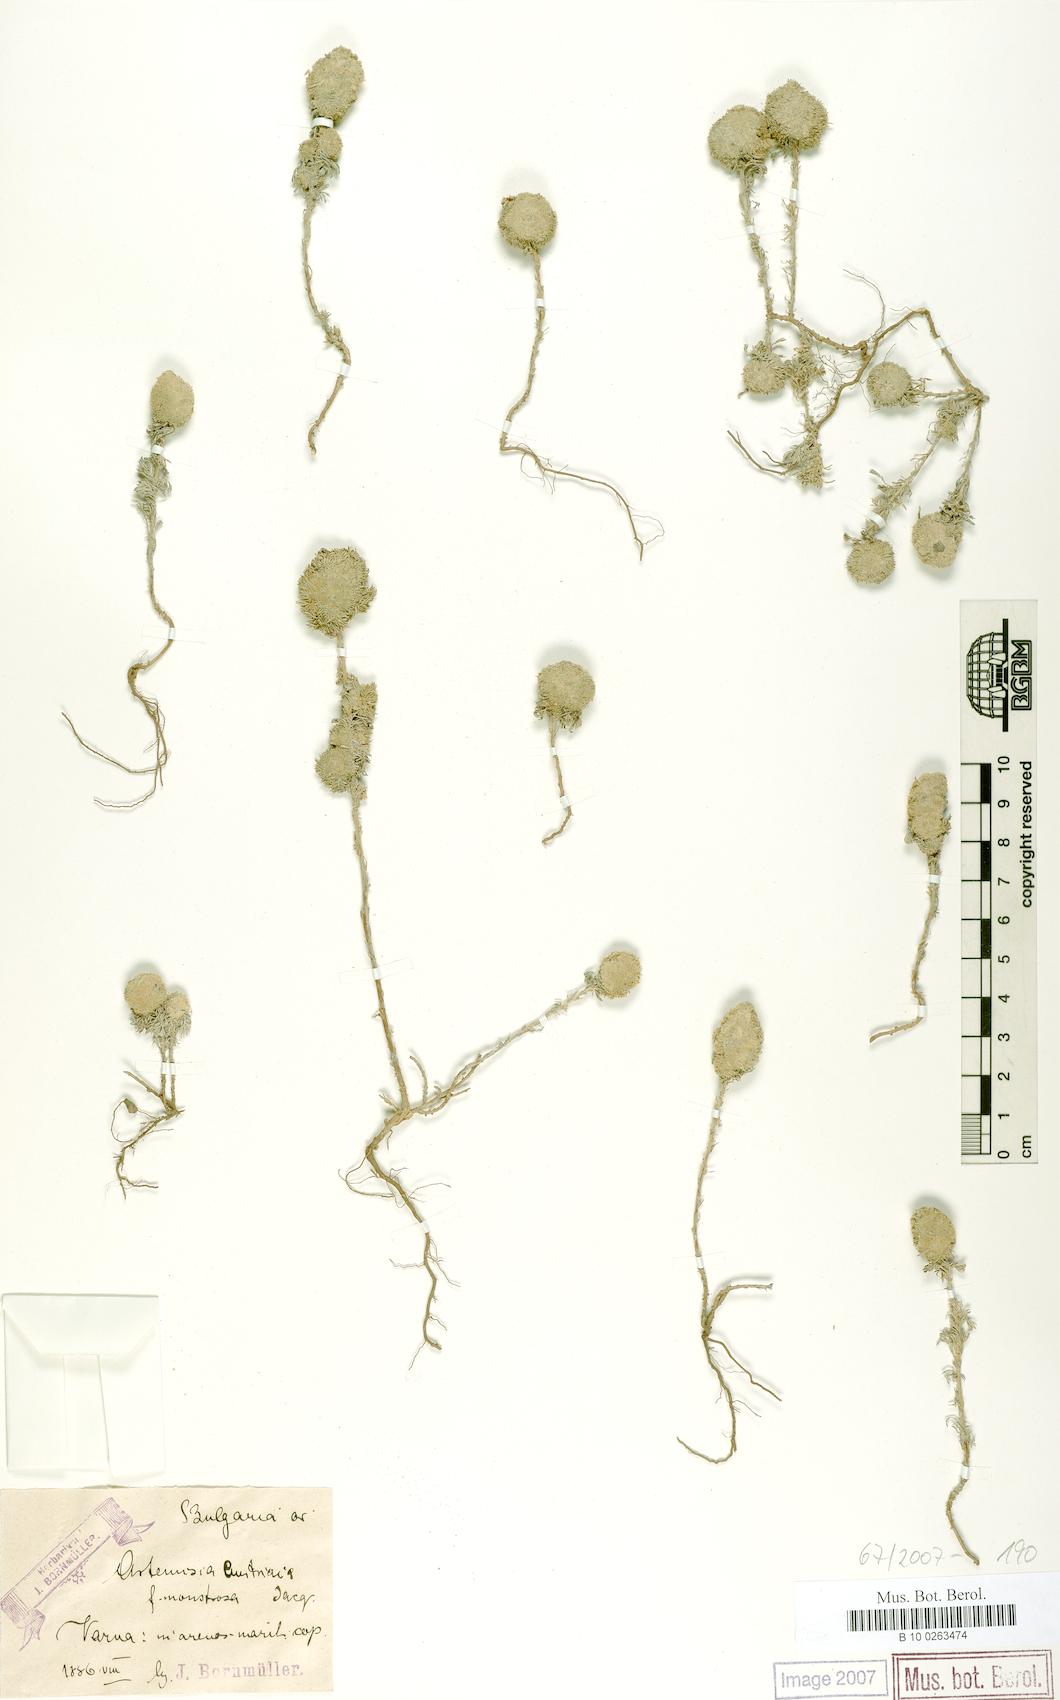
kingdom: Plantae
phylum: Tracheophyta
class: Magnoliopsida
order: Asterales
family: Asteraceae
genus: Artemisia
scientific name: Artemisia austriaca
